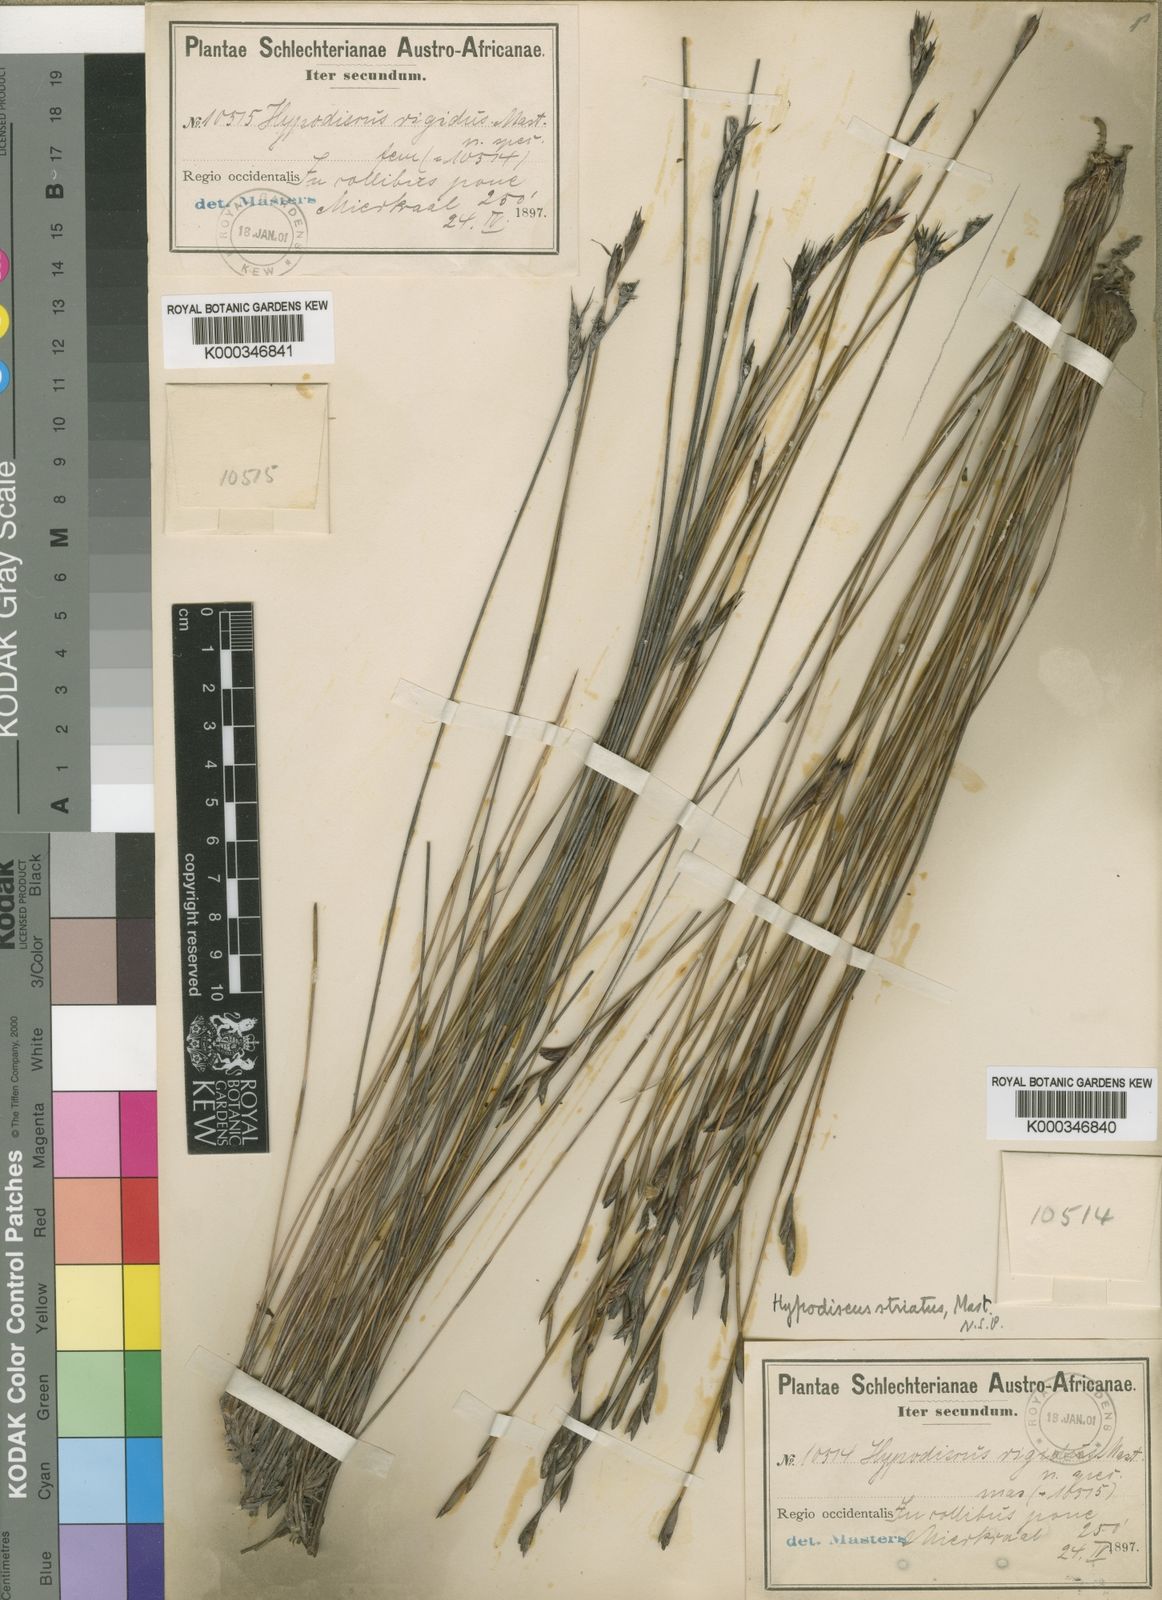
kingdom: Plantae
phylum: Tracheophyta
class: Liliopsida
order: Poales
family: Restionaceae
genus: Hypodiscus
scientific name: Hypodiscus rigidus
